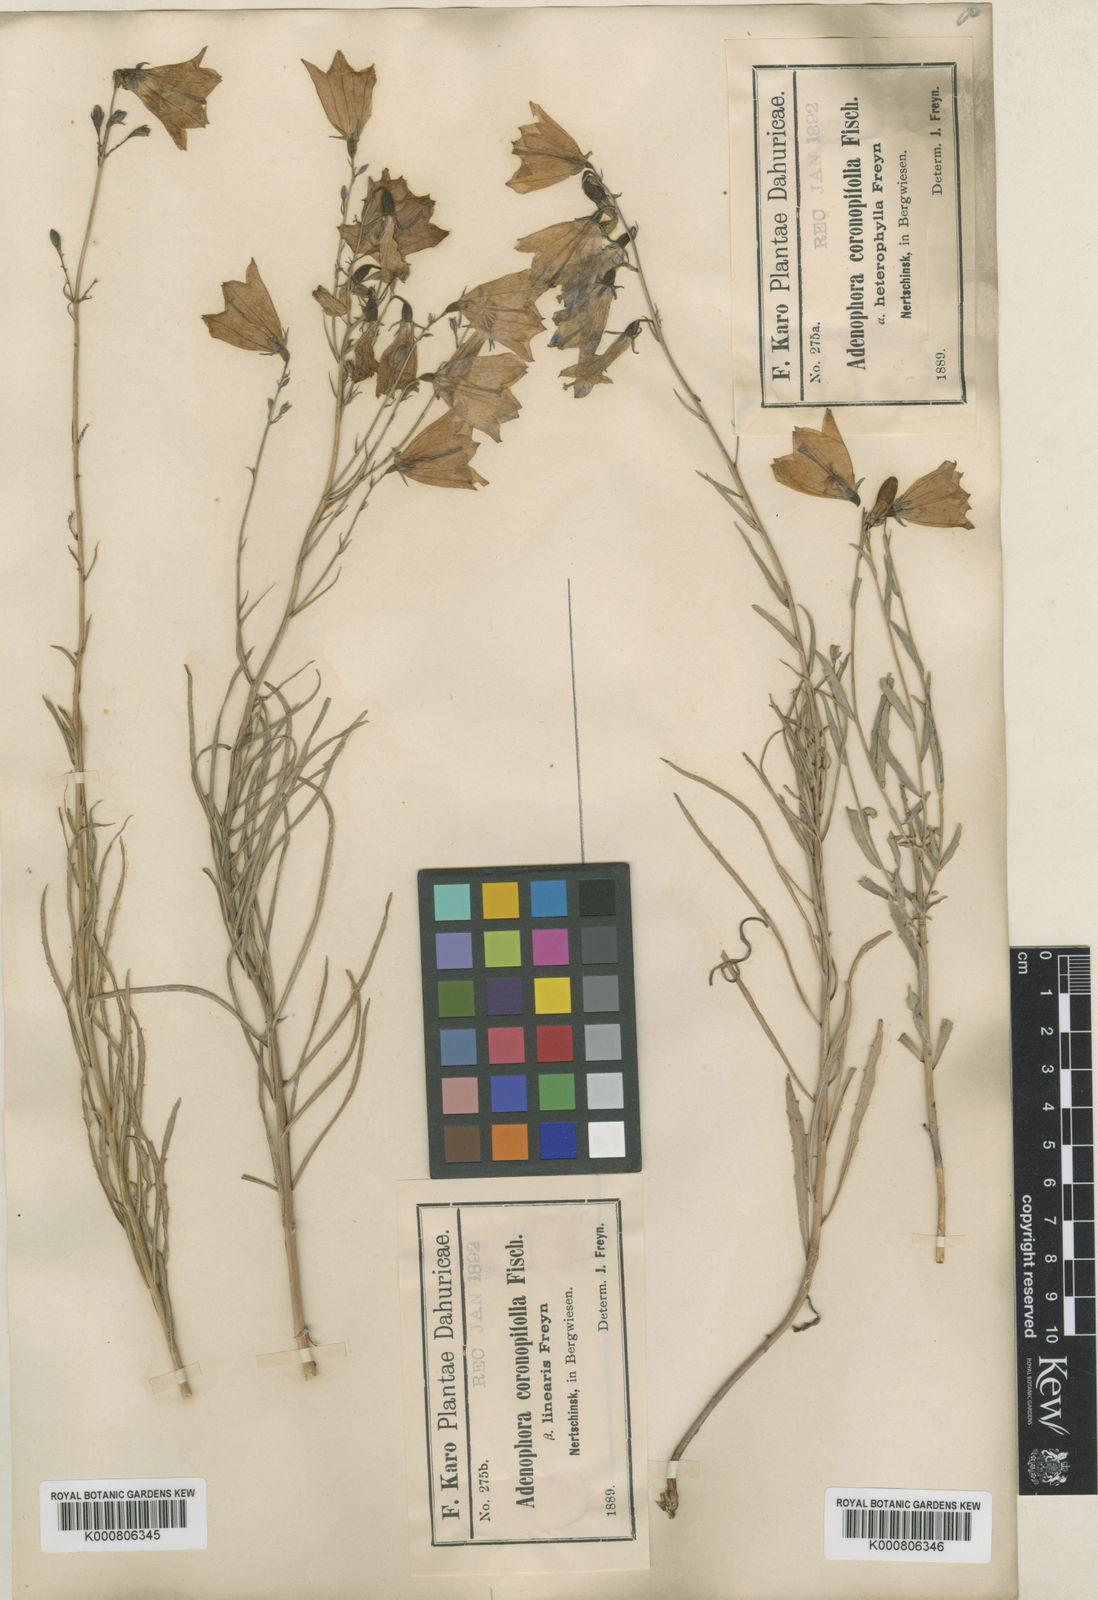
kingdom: Plantae
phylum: Tracheophyta
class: Magnoliopsida
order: Asterales
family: Campanulaceae
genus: Adenophora
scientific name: Adenophora gmelinii
